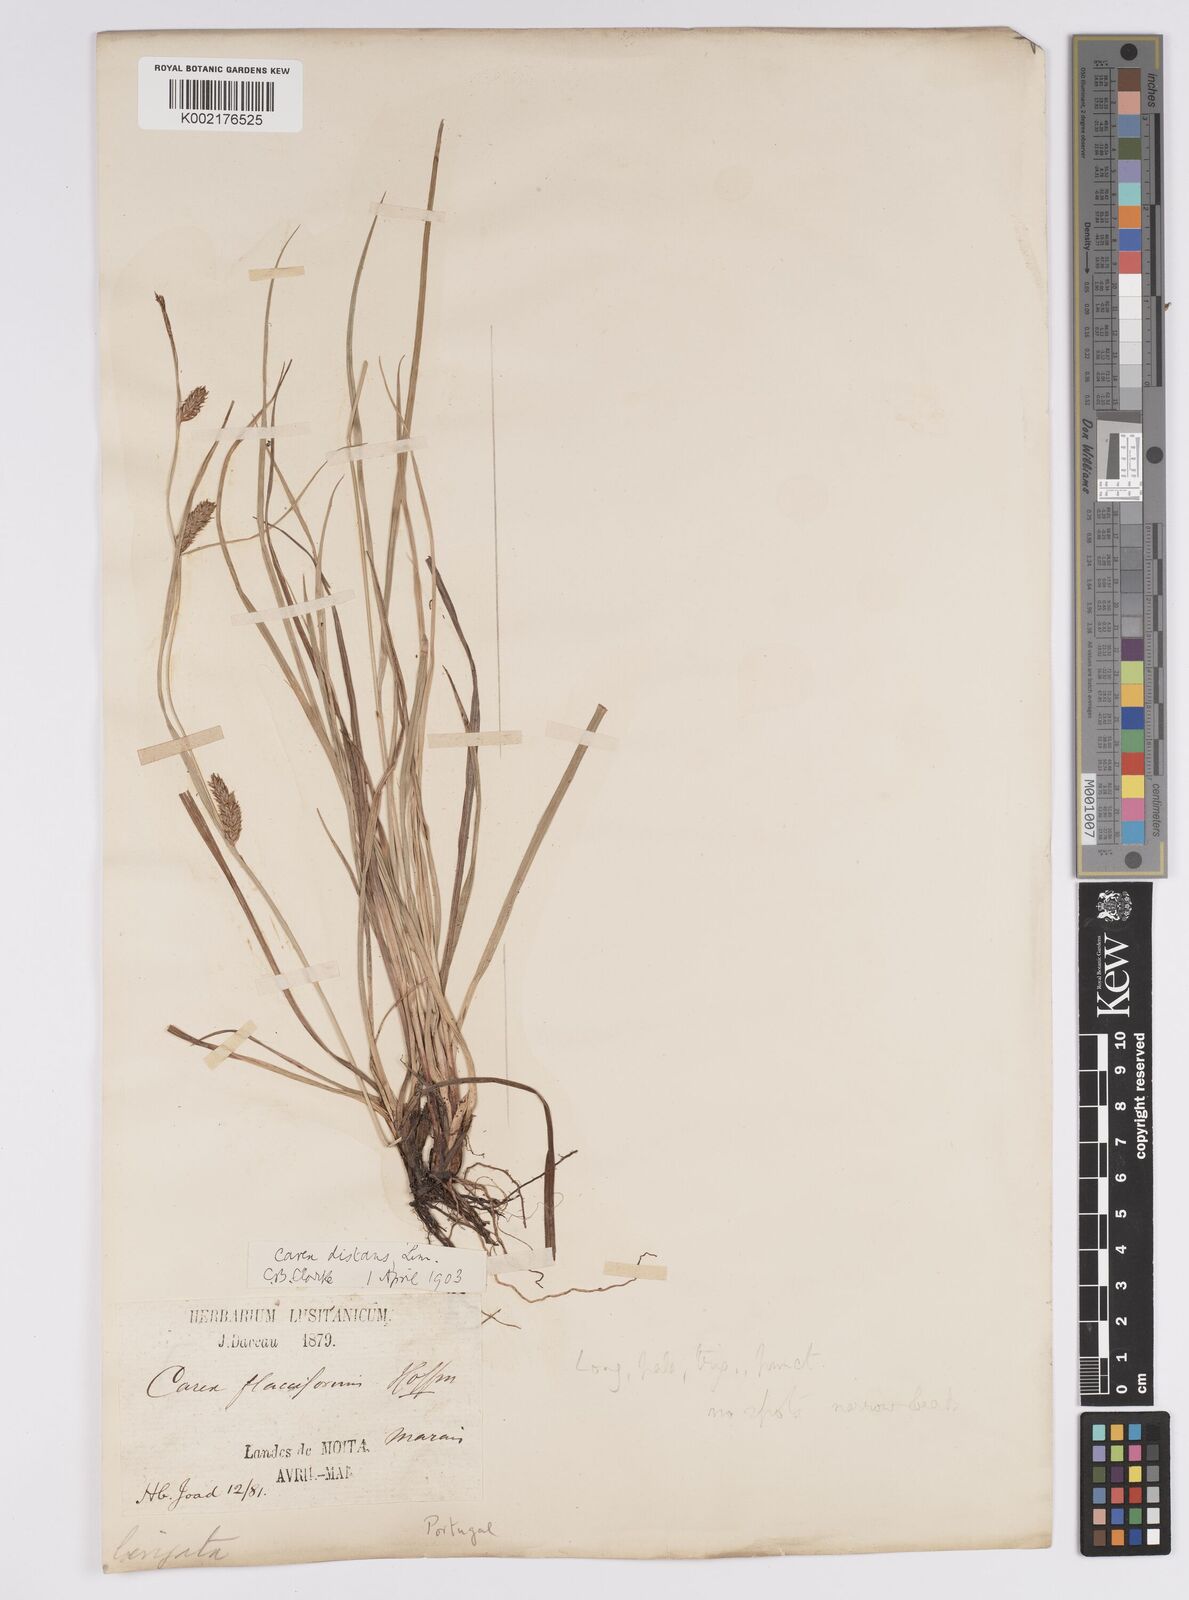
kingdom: Plantae
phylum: Tracheophyta
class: Liliopsida
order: Poales
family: Cyperaceae
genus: Carex
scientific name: Carex distans
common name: Distant sedge
